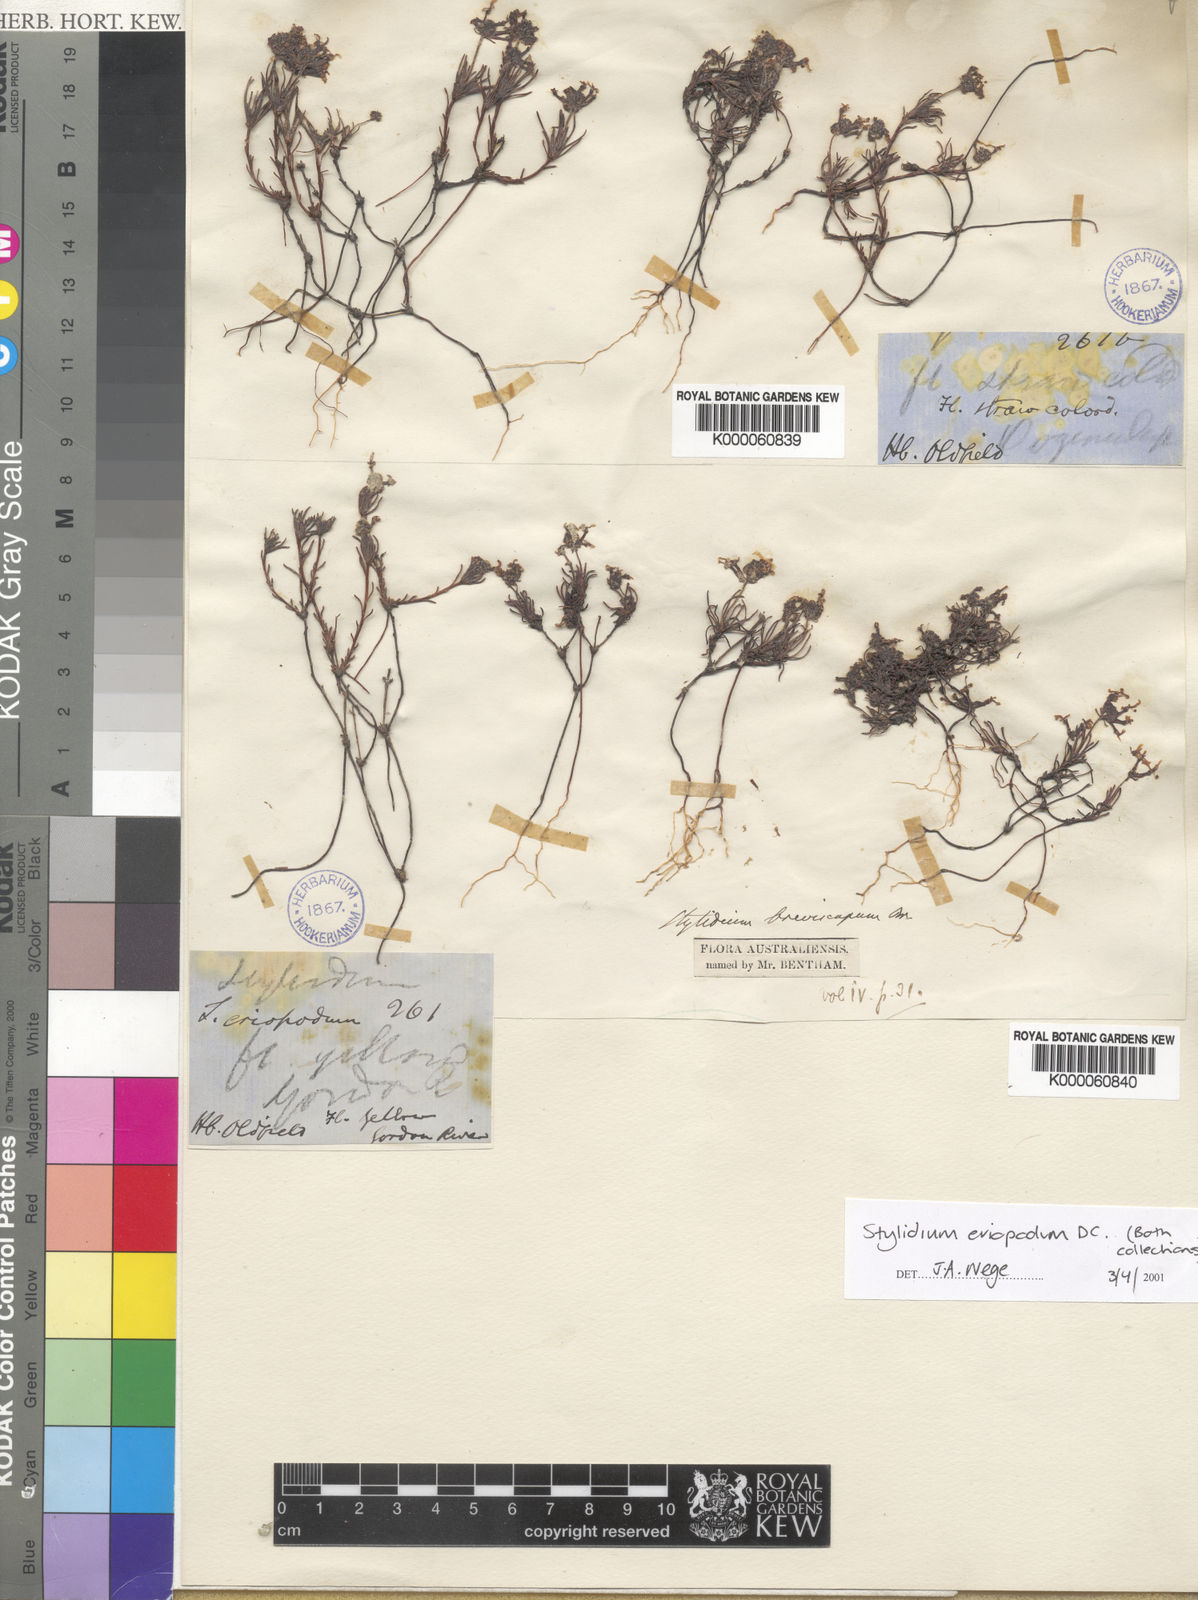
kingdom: Plantae
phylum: Tracheophyta
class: Magnoliopsida
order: Asterales
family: Stylidiaceae
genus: Stylidium
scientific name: Stylidium breviscapum
